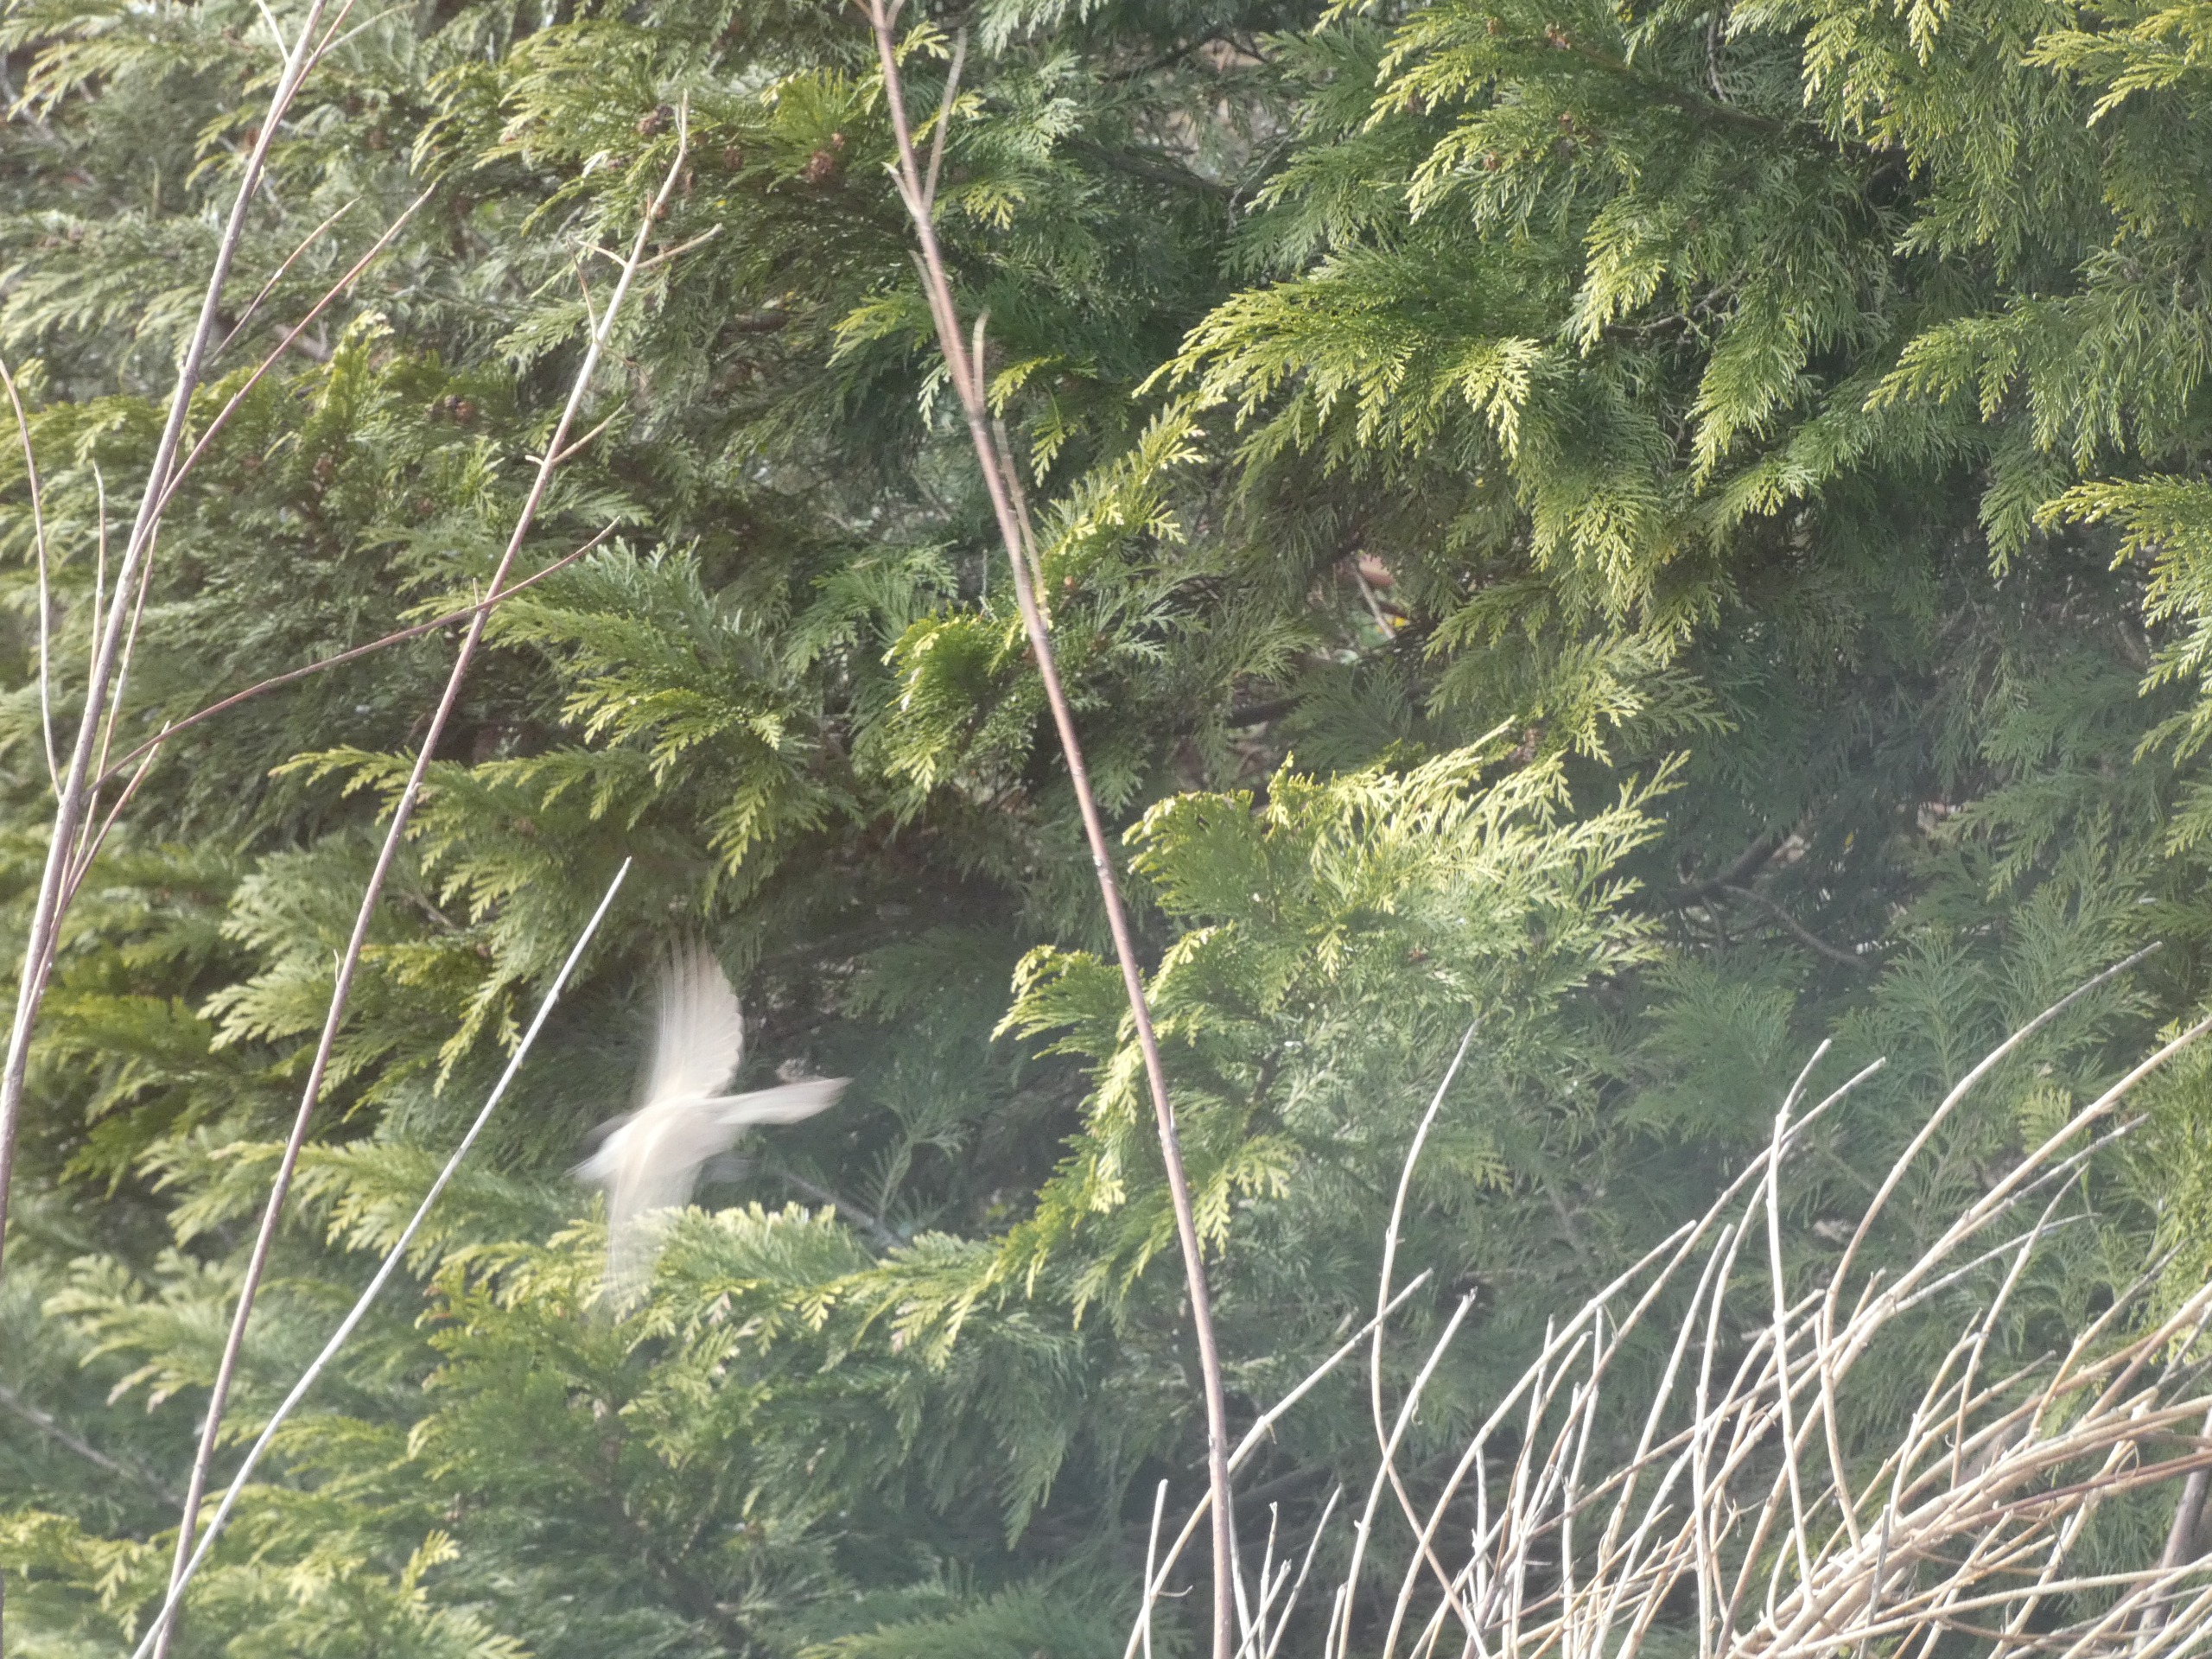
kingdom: Animalia
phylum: Chordata
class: Aves
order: Passeriformes
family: Paridae
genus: Poecile
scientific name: Poecile palustris
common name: Sumpmejse
